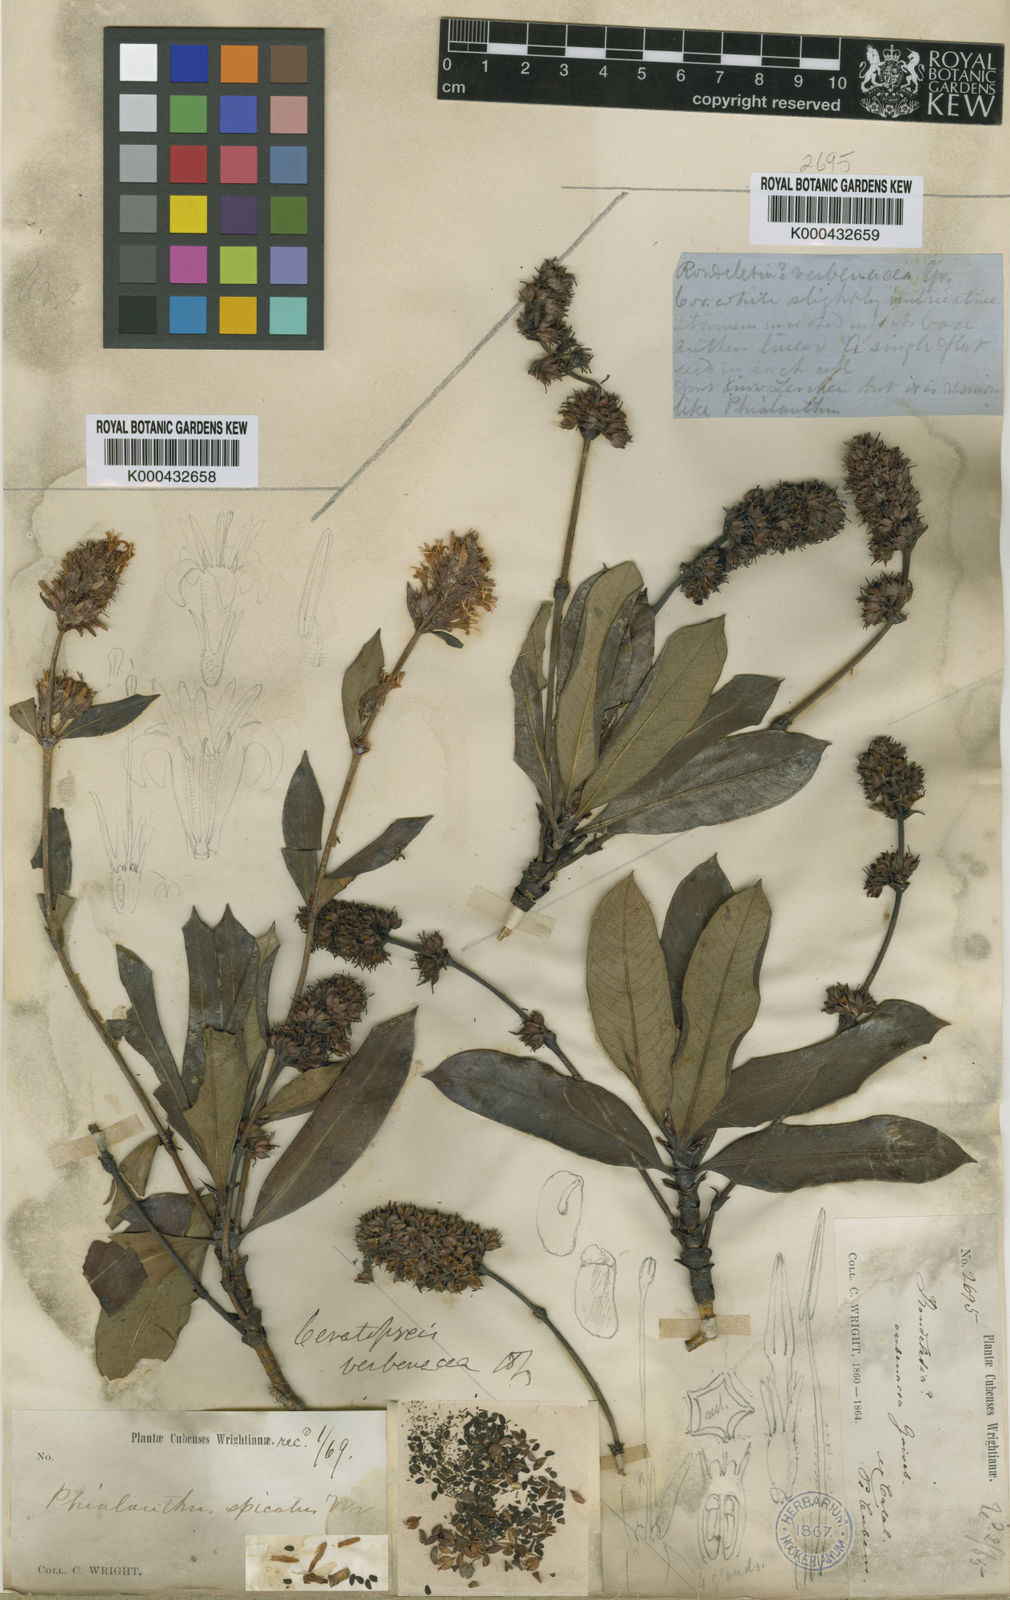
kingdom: Plantae
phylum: Tracheophyta
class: Magnoliopsida
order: Gentianales
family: Rubiaceae
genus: Ceratopyxis
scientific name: Ceratopyxis verbenacea
